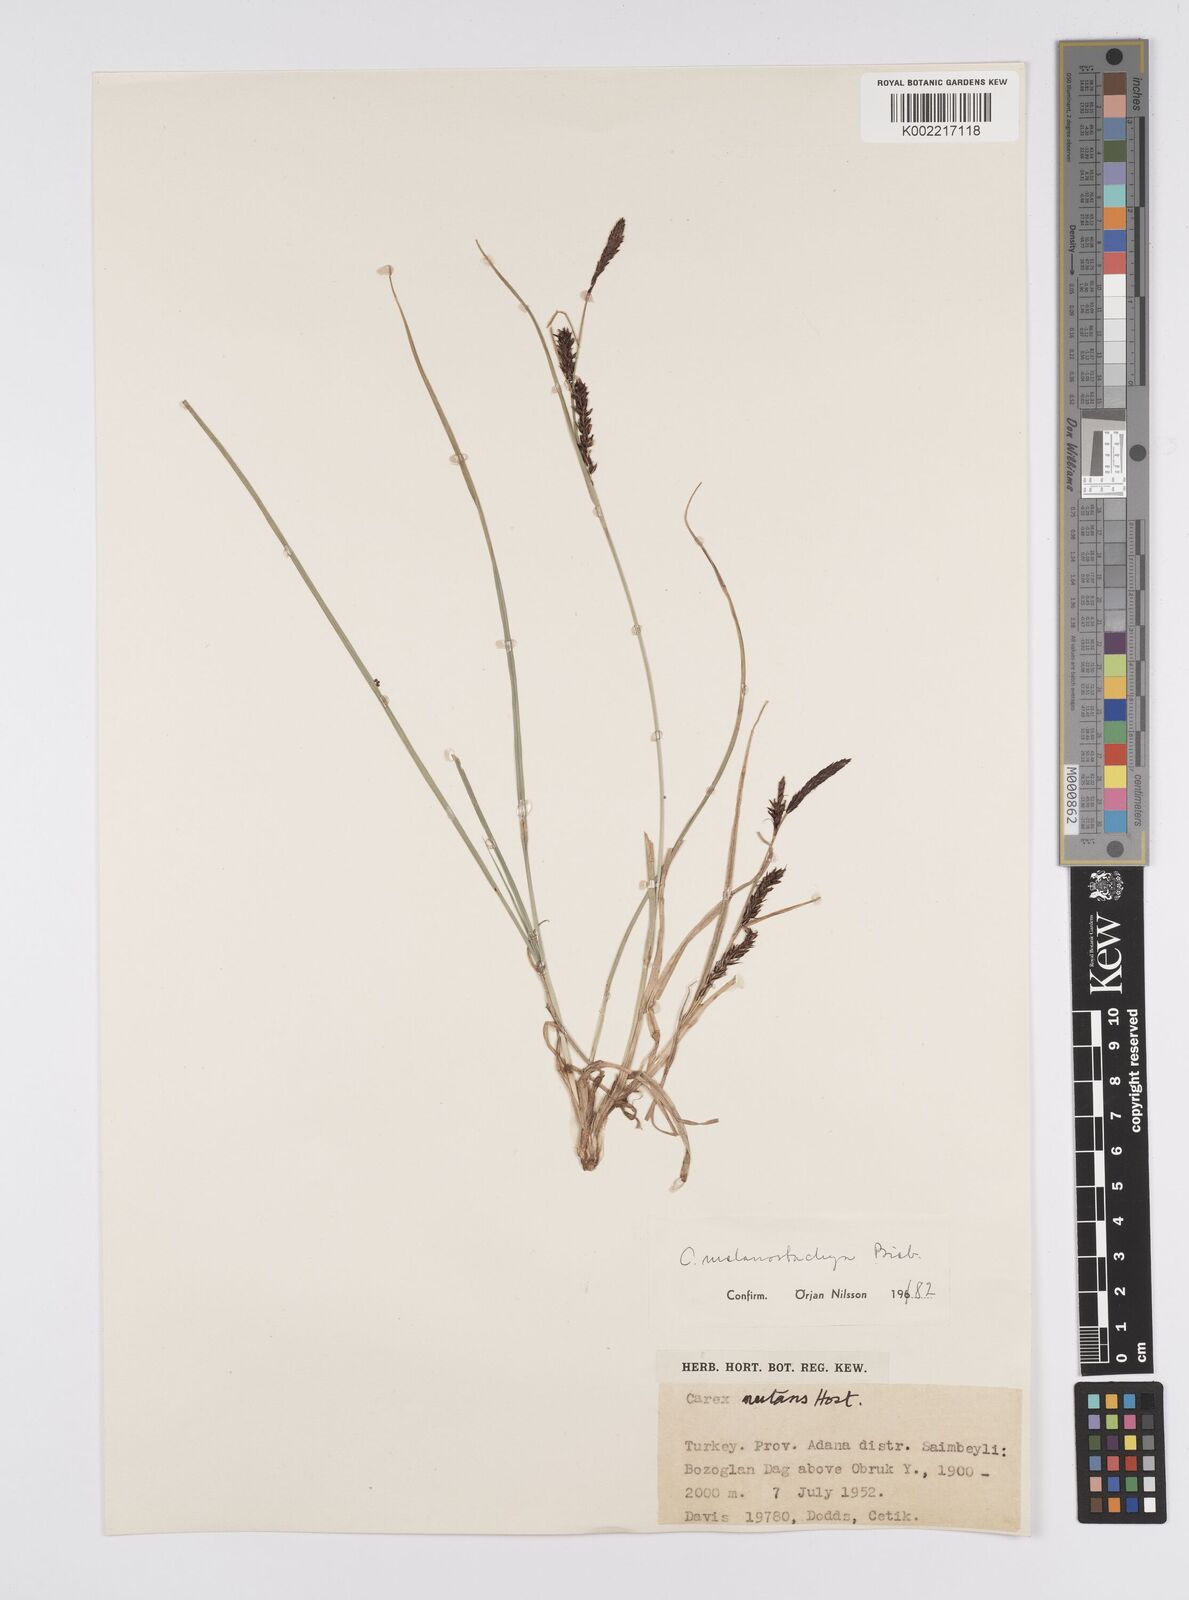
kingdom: Plantae
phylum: Tracheophyta
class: Liliopsida
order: Poales
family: Cyperaceae
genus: Carex
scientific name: Carex melanostachya
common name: Black-spiked sedge
